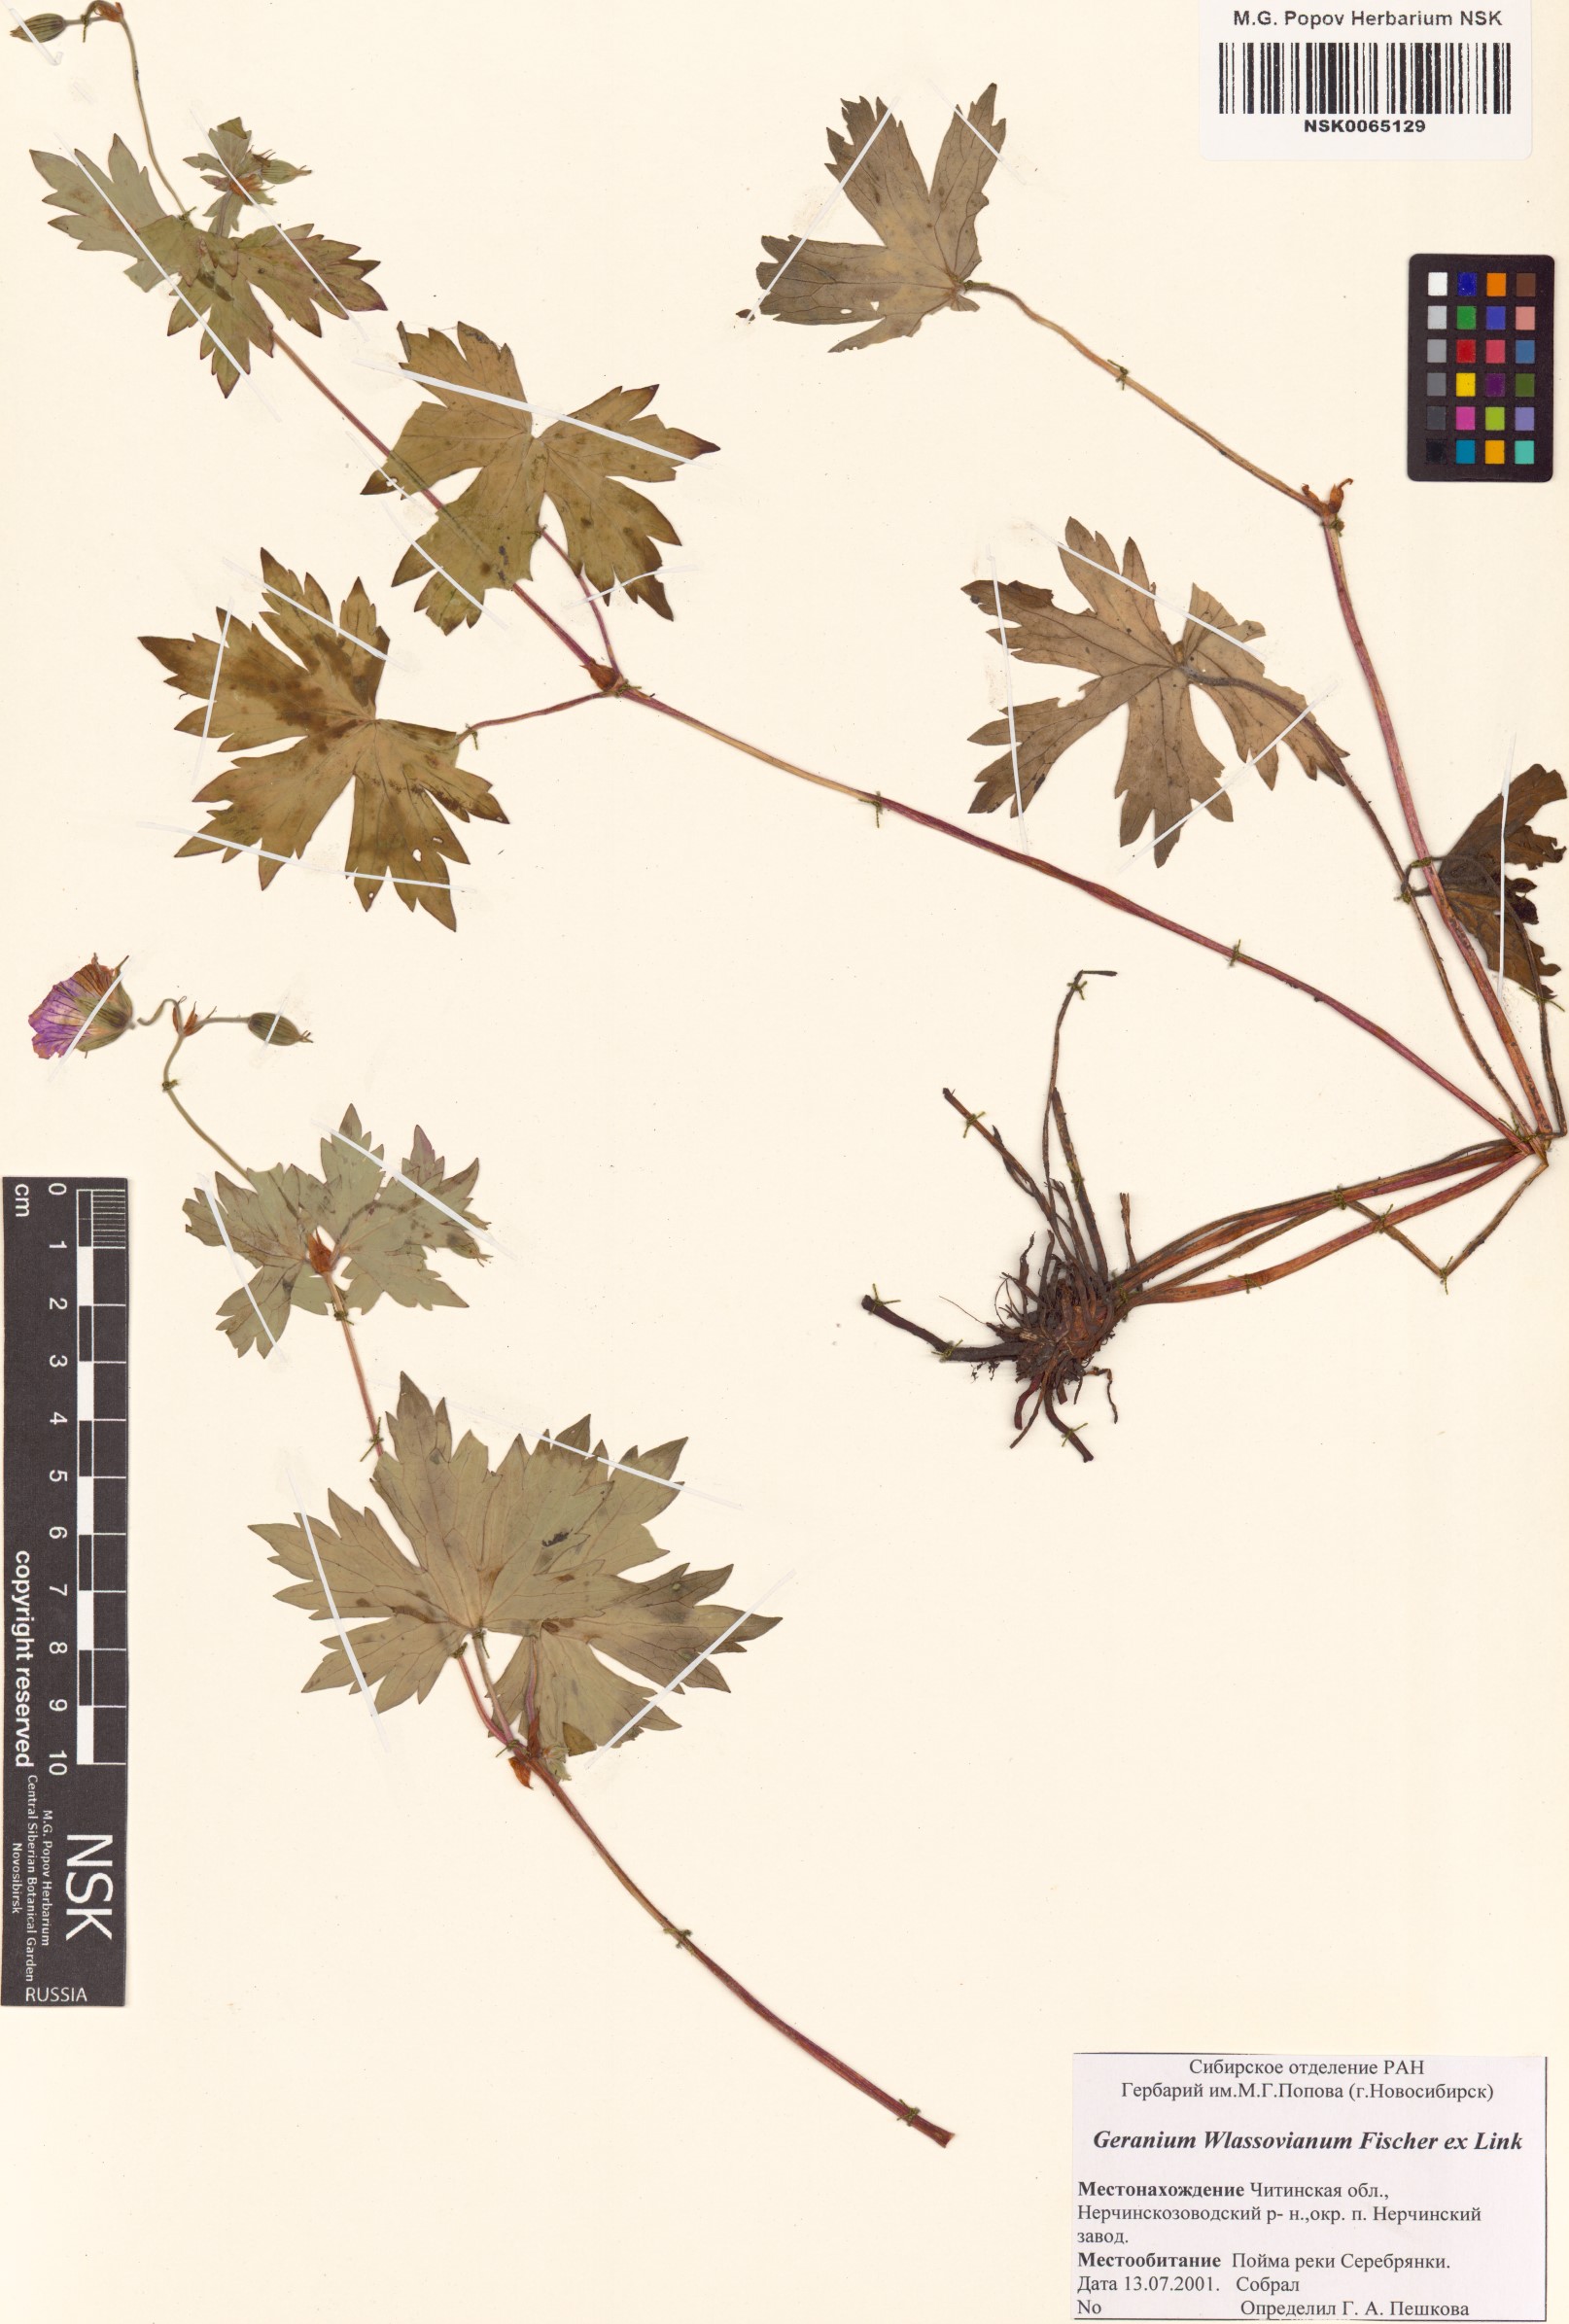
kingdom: Plantae
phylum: Tracheophyta
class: Magnoliopsida
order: Geraniales
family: Geraniaceae
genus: Geranium
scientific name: Geranium wlassovianum
